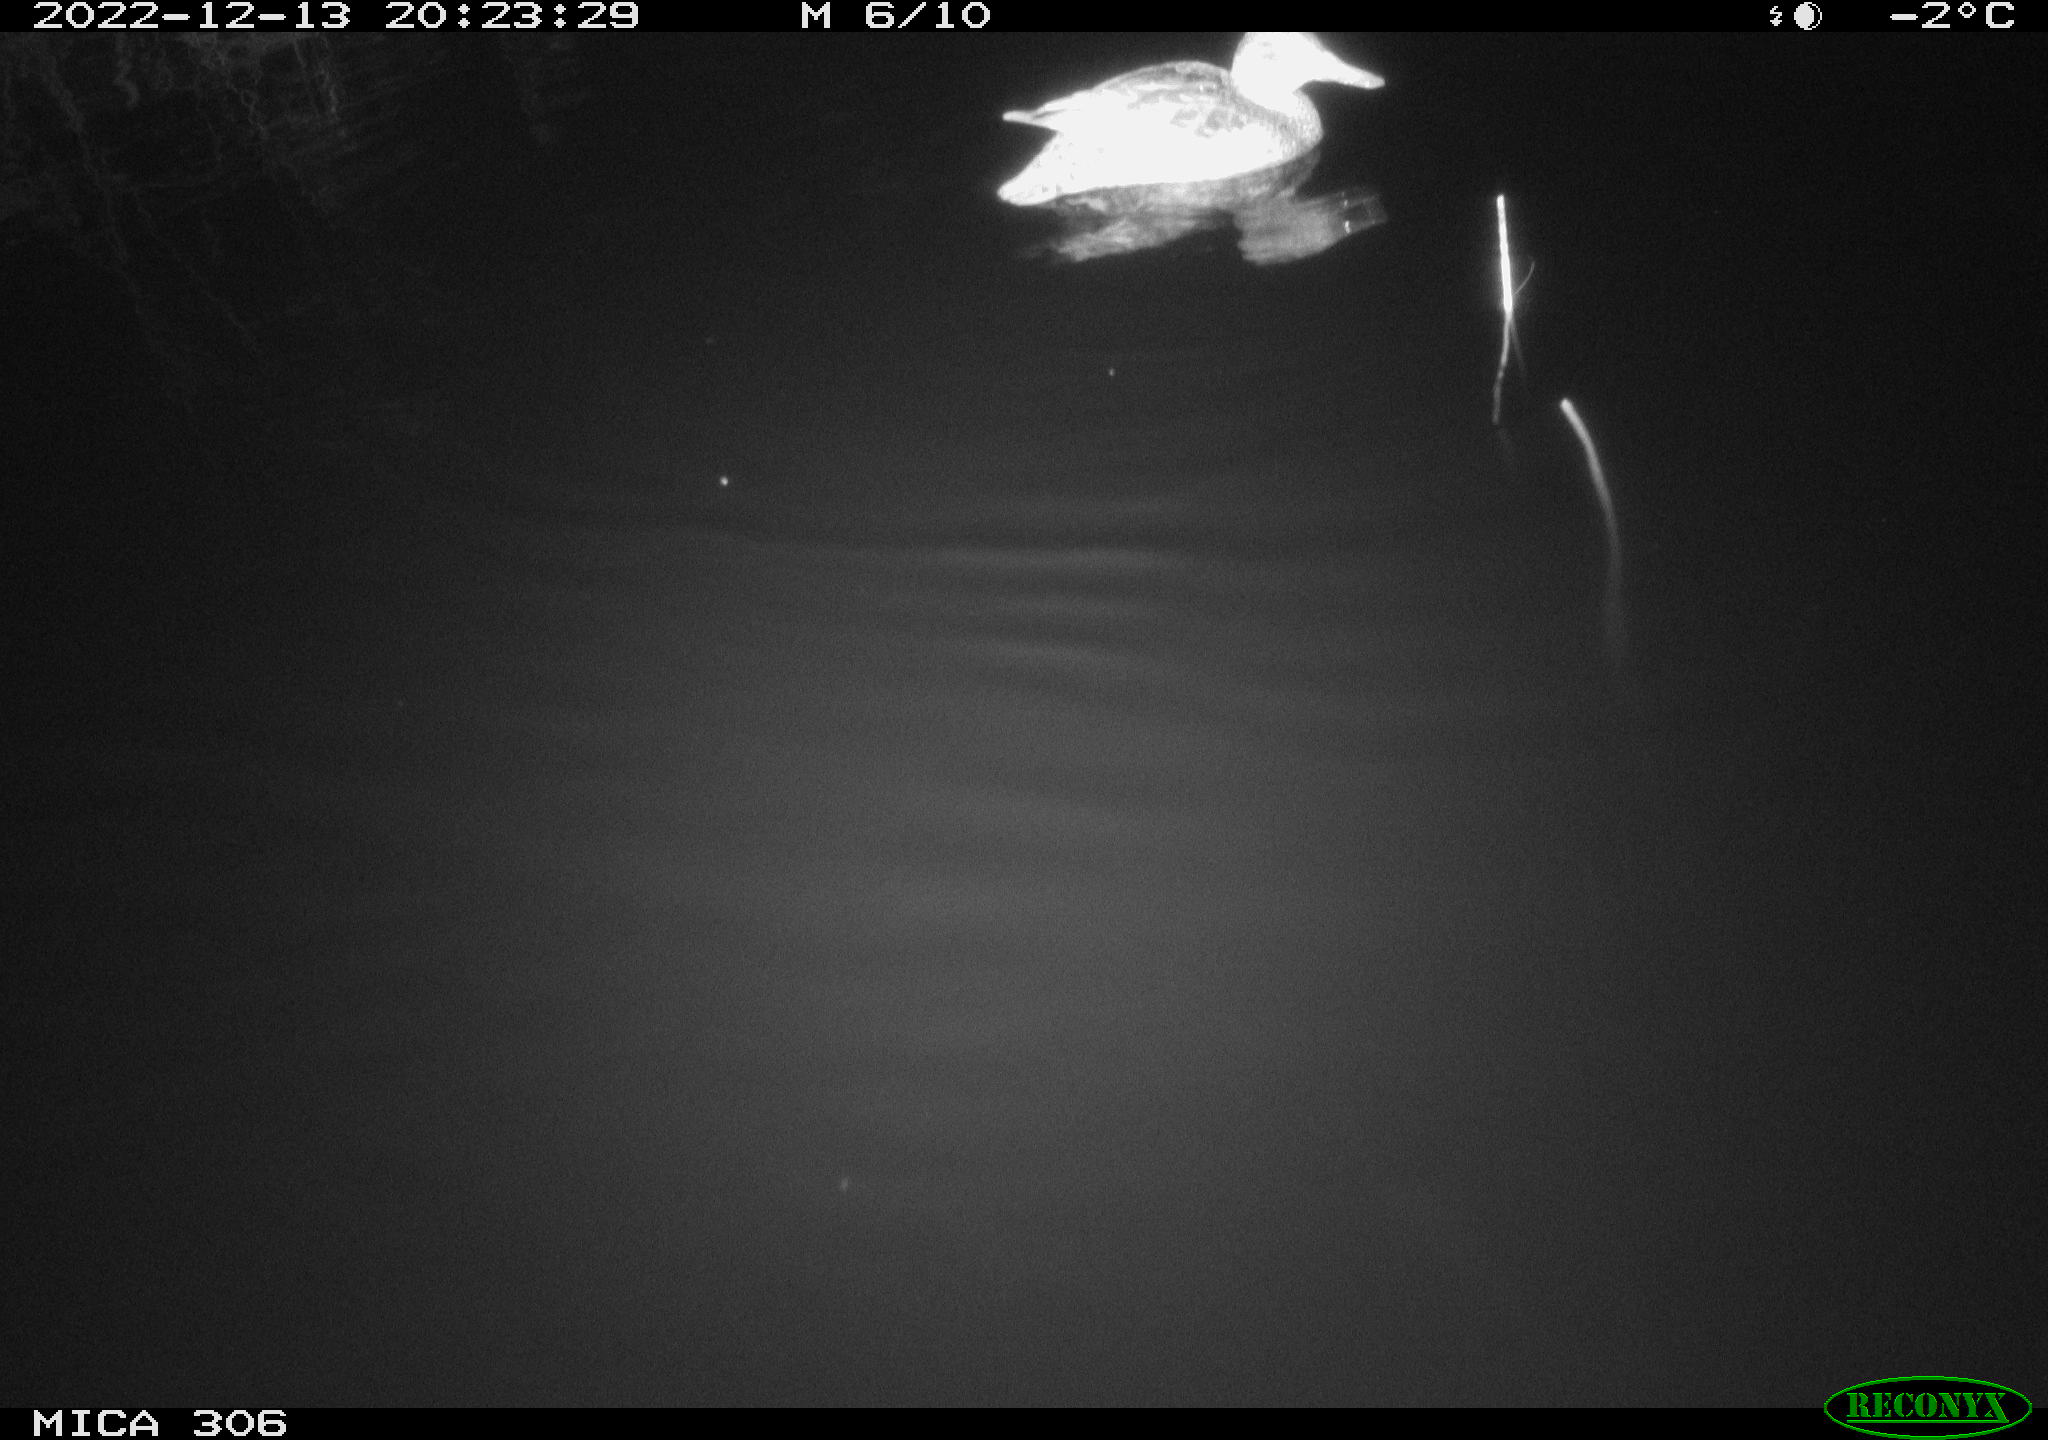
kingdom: Animalia
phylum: Chordata
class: Aves
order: Anseriformes
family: Anatidae
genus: Anas
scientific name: Anas
